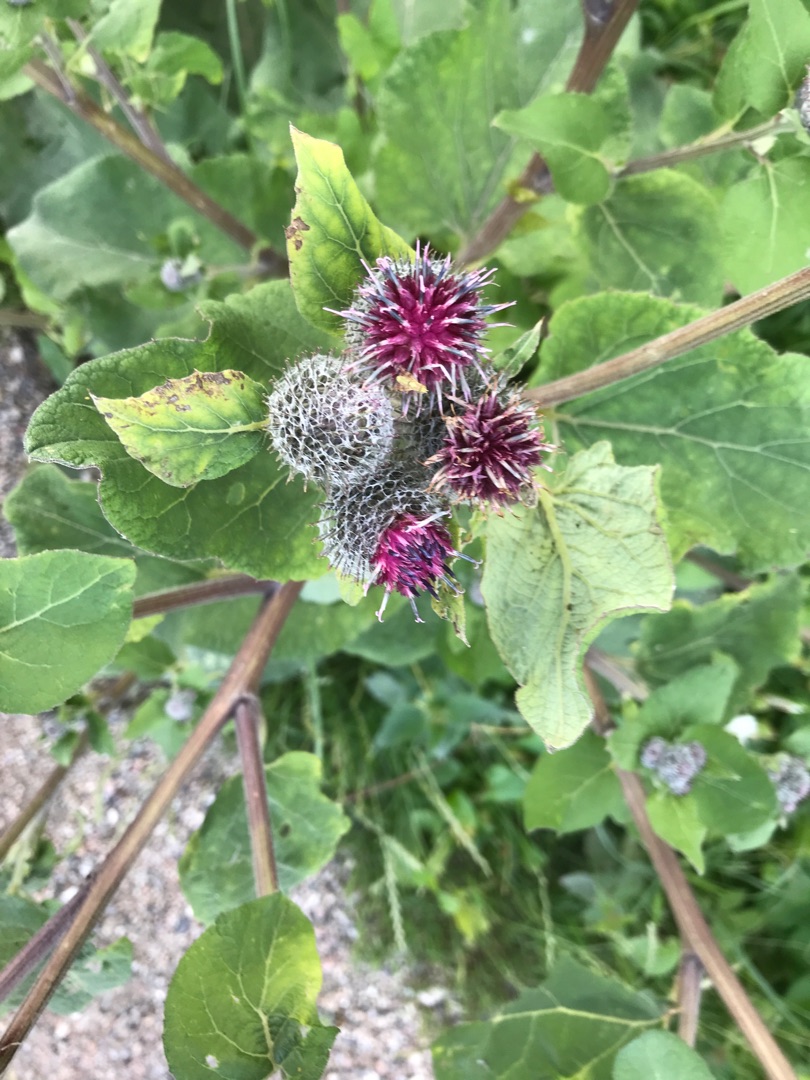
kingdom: Plantae
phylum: Tracheophyta
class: Magnoliopsida
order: Asterales
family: Asteraceae
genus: Arctium
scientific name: Arctium tomentosum
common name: Filtet burre
